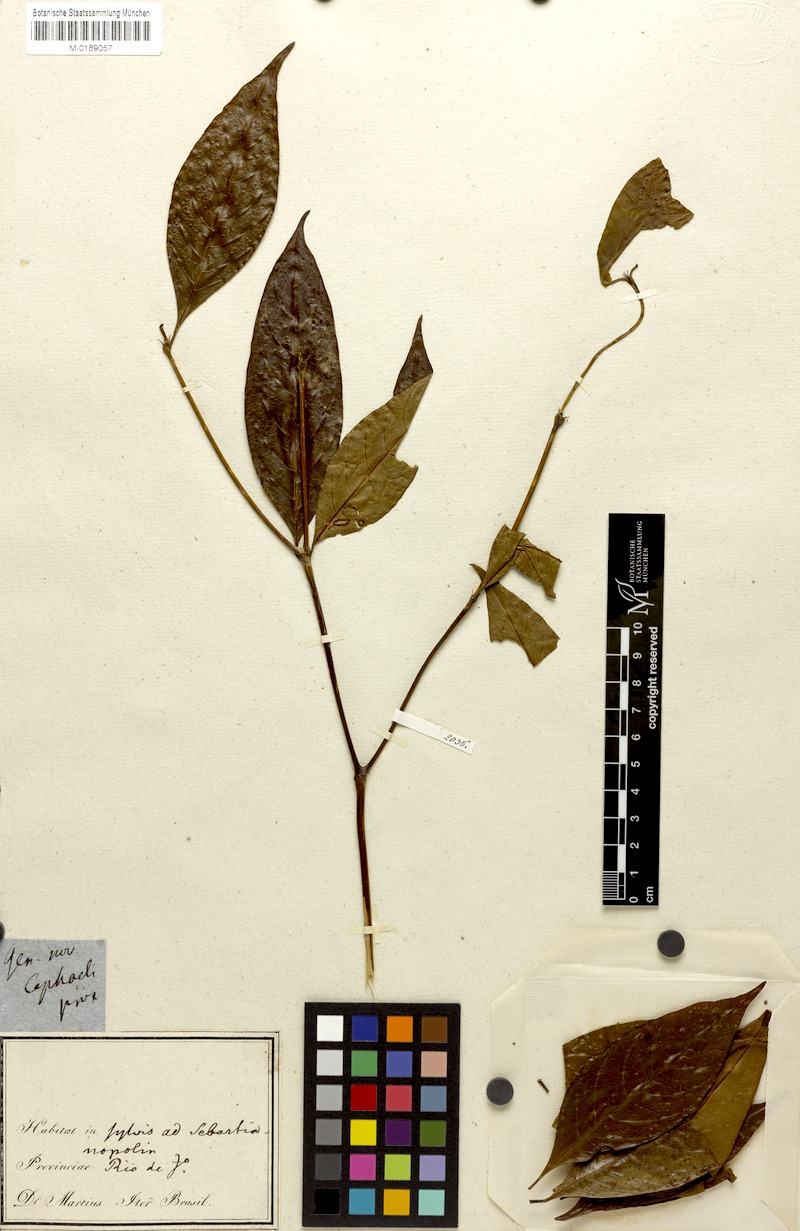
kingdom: Plantae
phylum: Tracheophyta
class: Magnoliopsida
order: Gentianales
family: Rubiaceae
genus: Psychotria
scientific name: Psychotria
